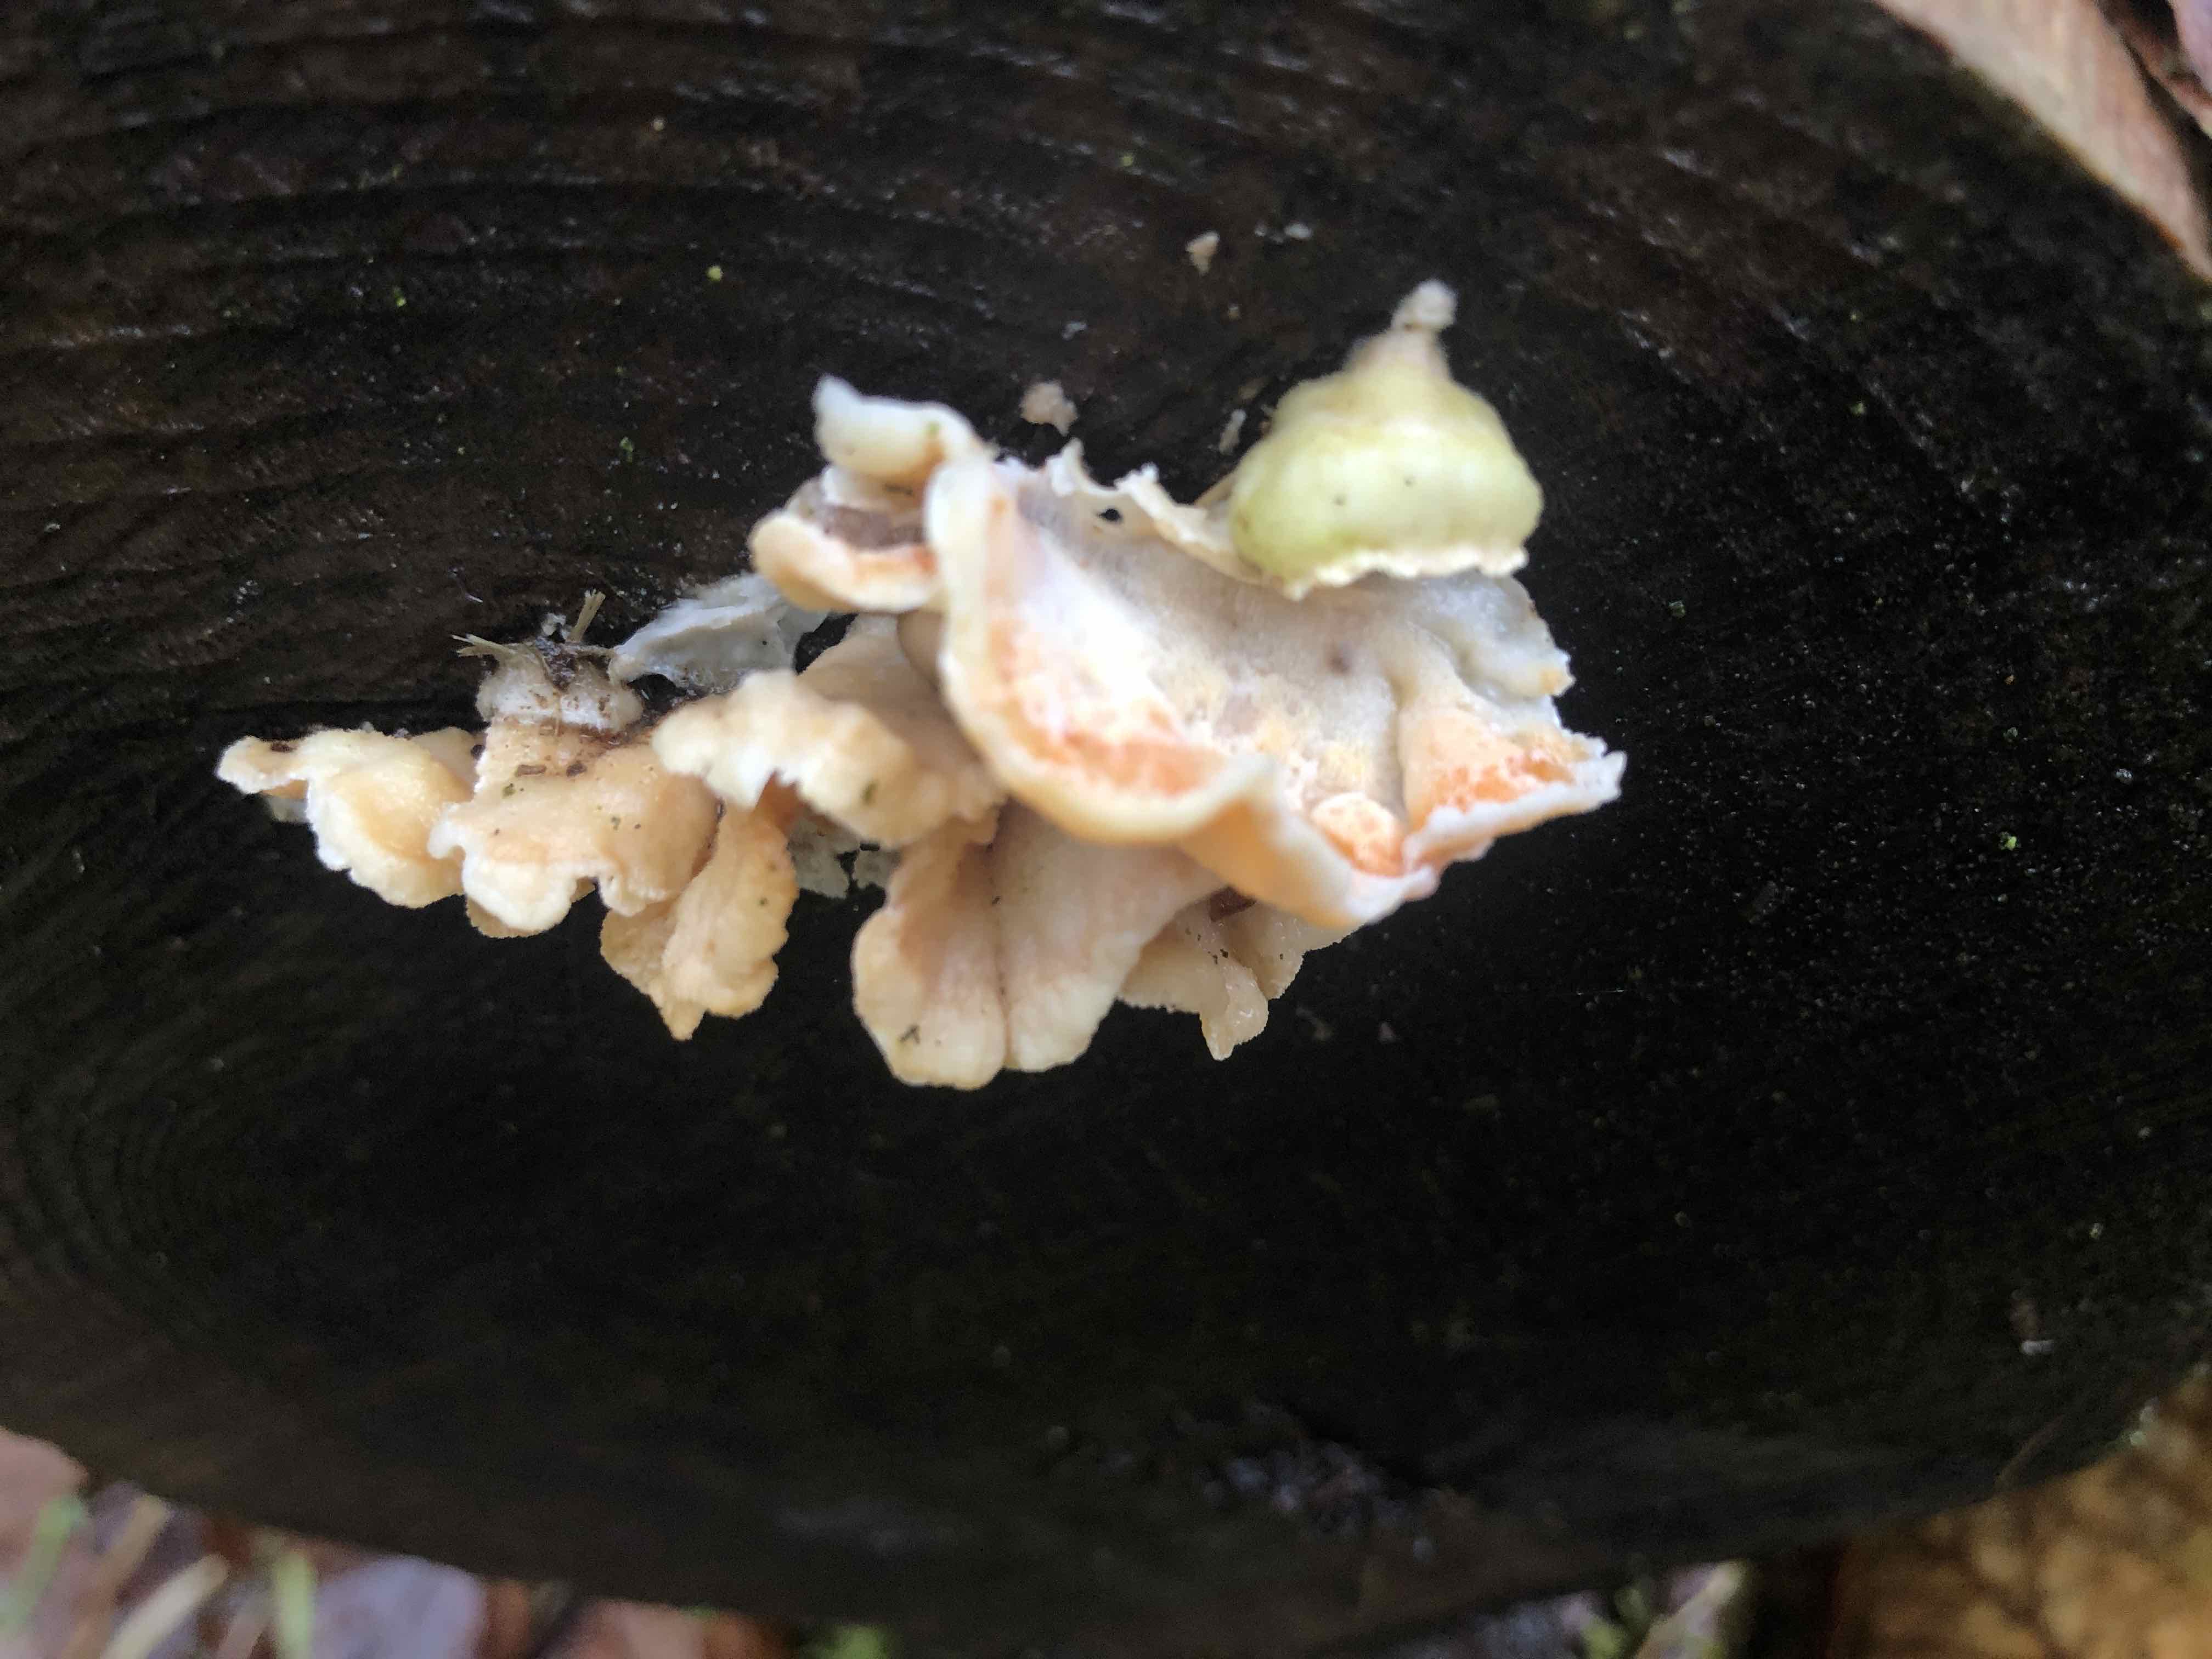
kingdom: Fungi
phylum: Basidiomycota
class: Agaricomycetes
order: Polyporales
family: Incrustoporiaceae
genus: Skeletocutis
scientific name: Skeletocutis amorpha
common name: orange krystalporesvamp
